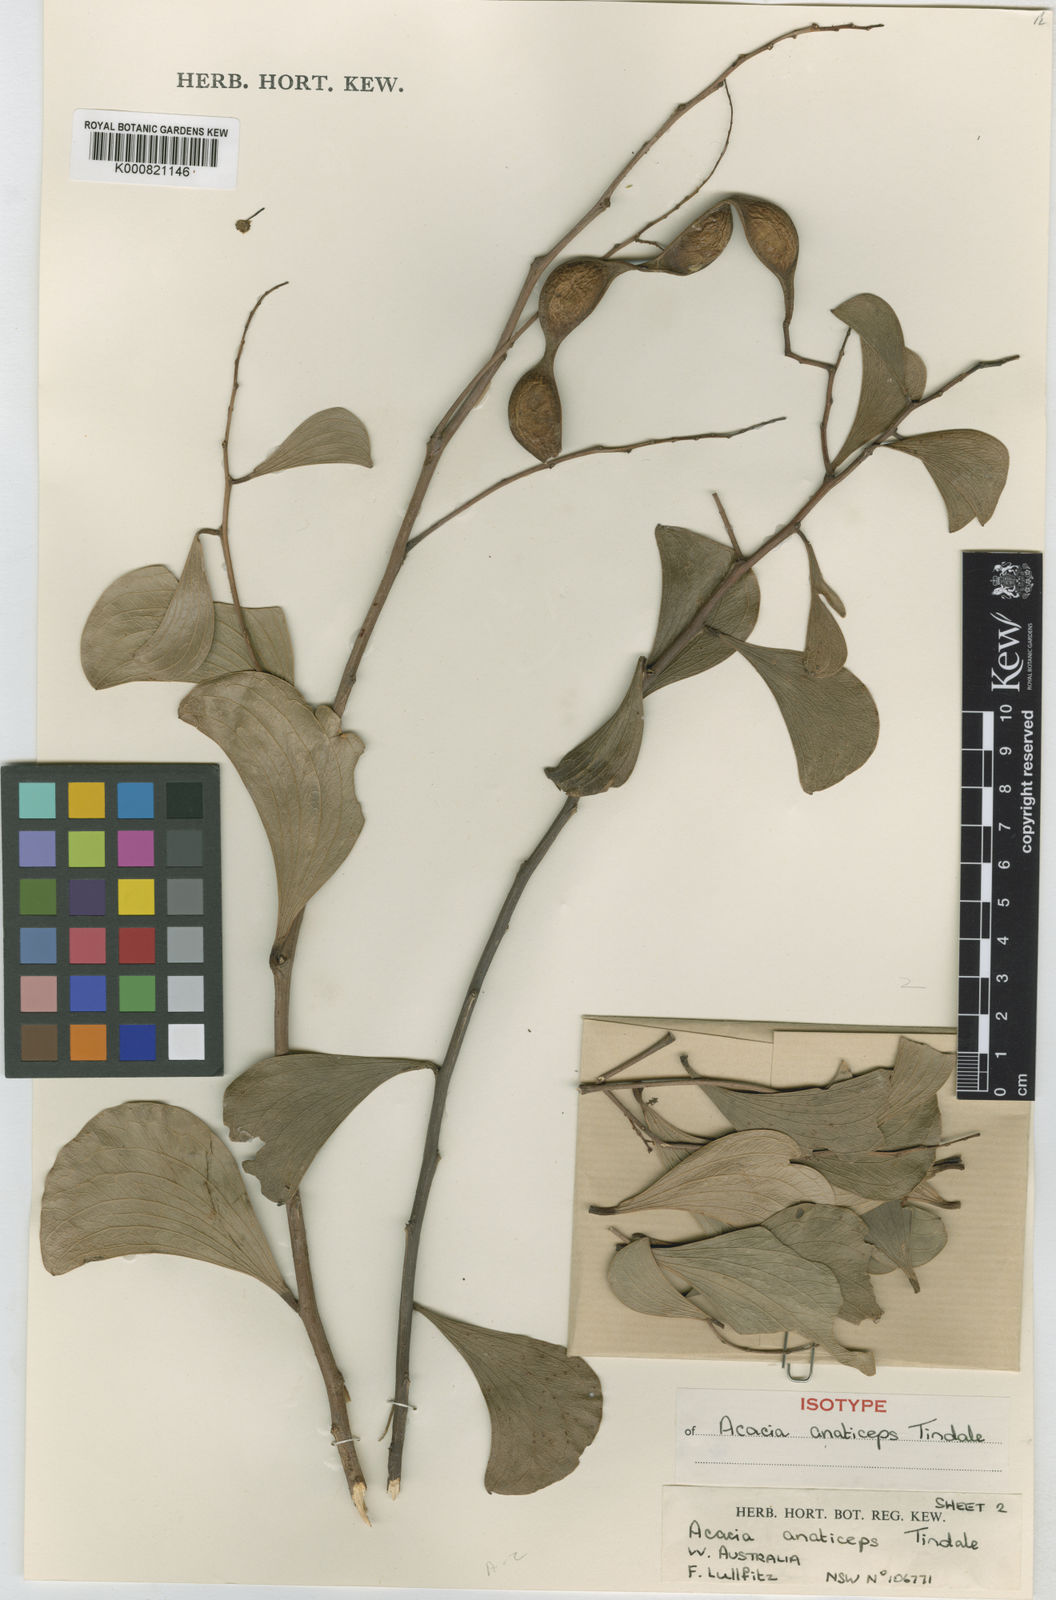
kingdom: Plantae
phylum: Tracheophyta
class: Magnoliopsida
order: Fabales
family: Fabaceae
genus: Acacia
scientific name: Acacia anaticeps
